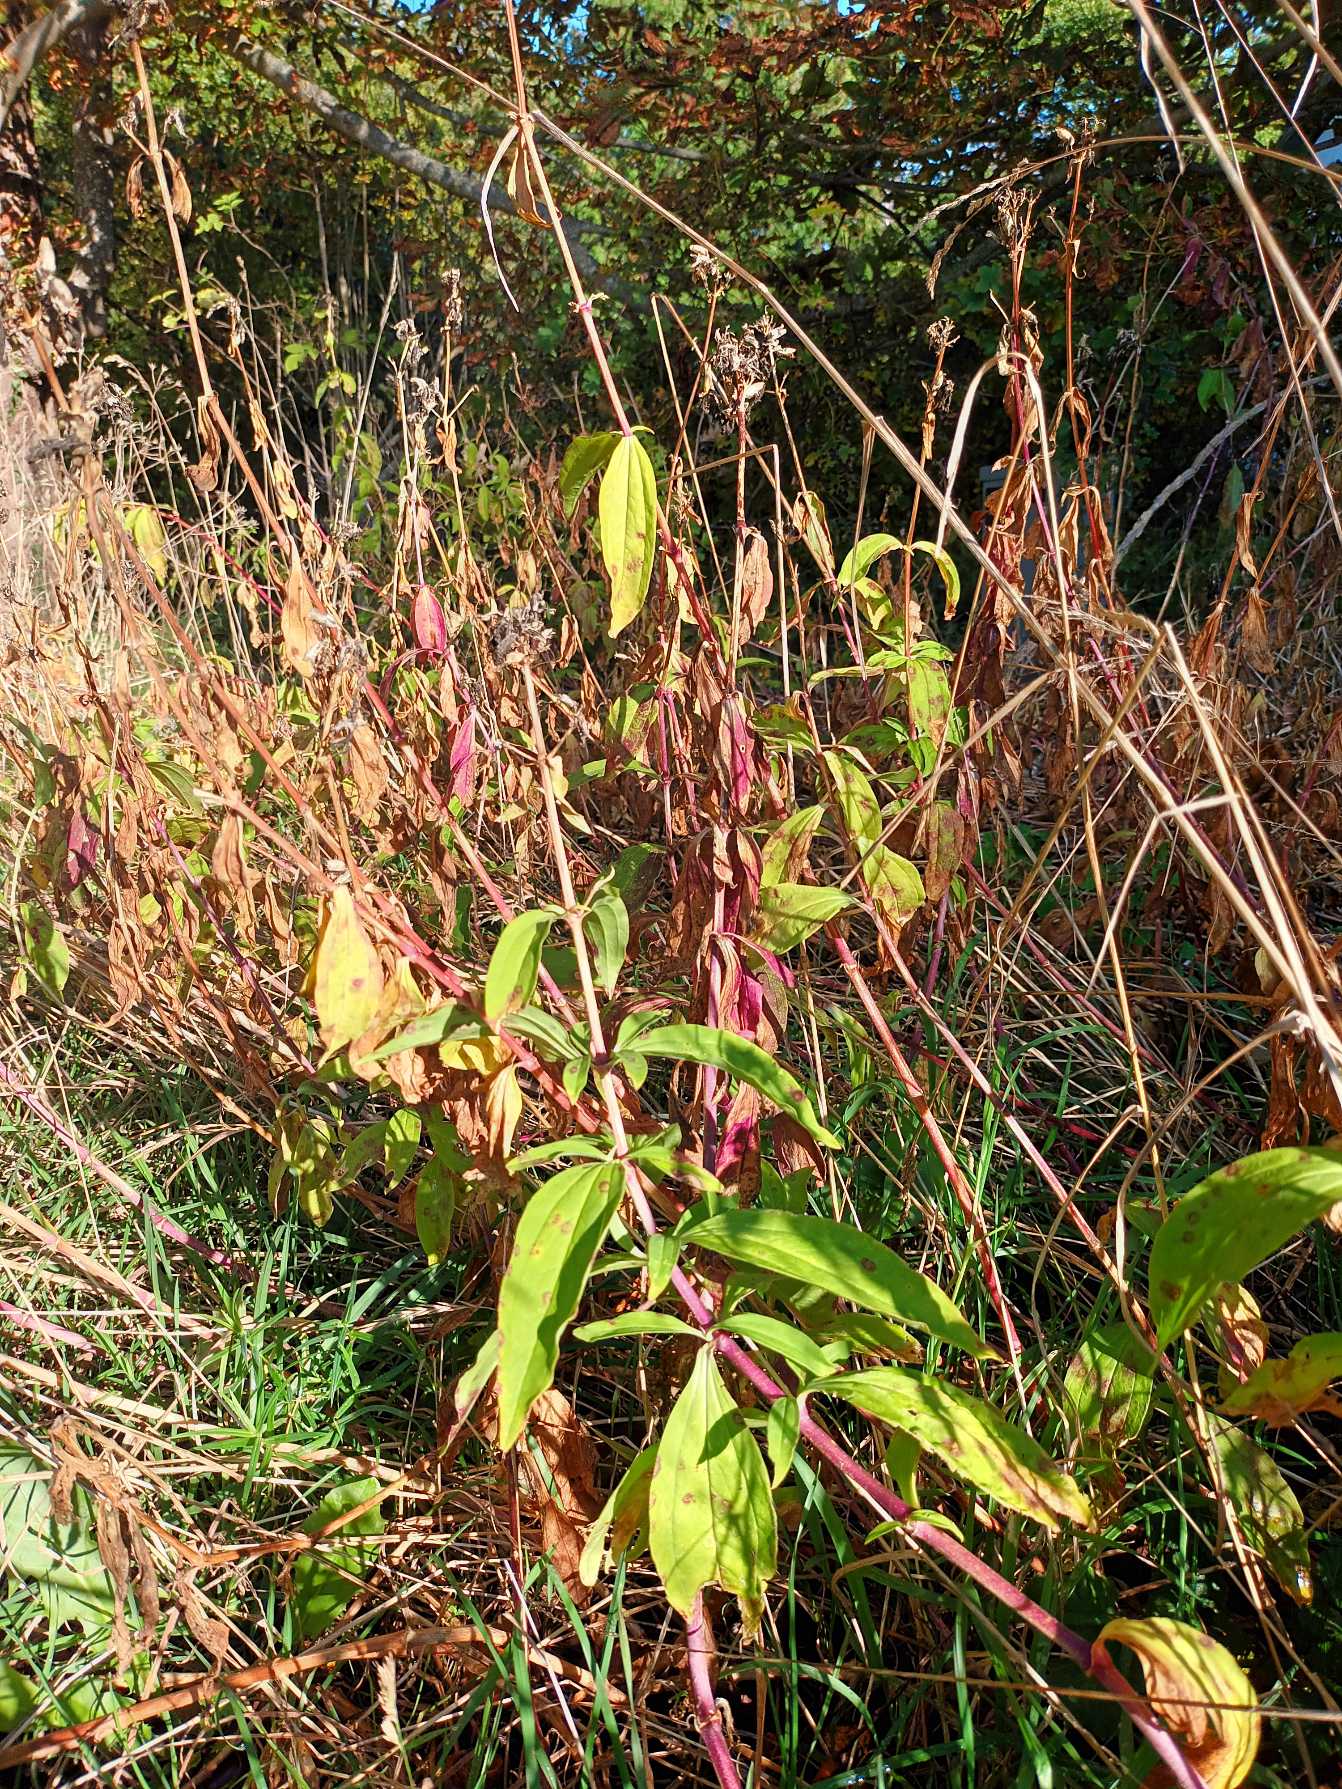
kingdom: Plantae
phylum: Tracheophyta
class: Magnoliopsida
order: Caryophyllales
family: Caryophyllaceae
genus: Saponaria
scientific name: Saponaria officinalis
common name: Sæbeurt
